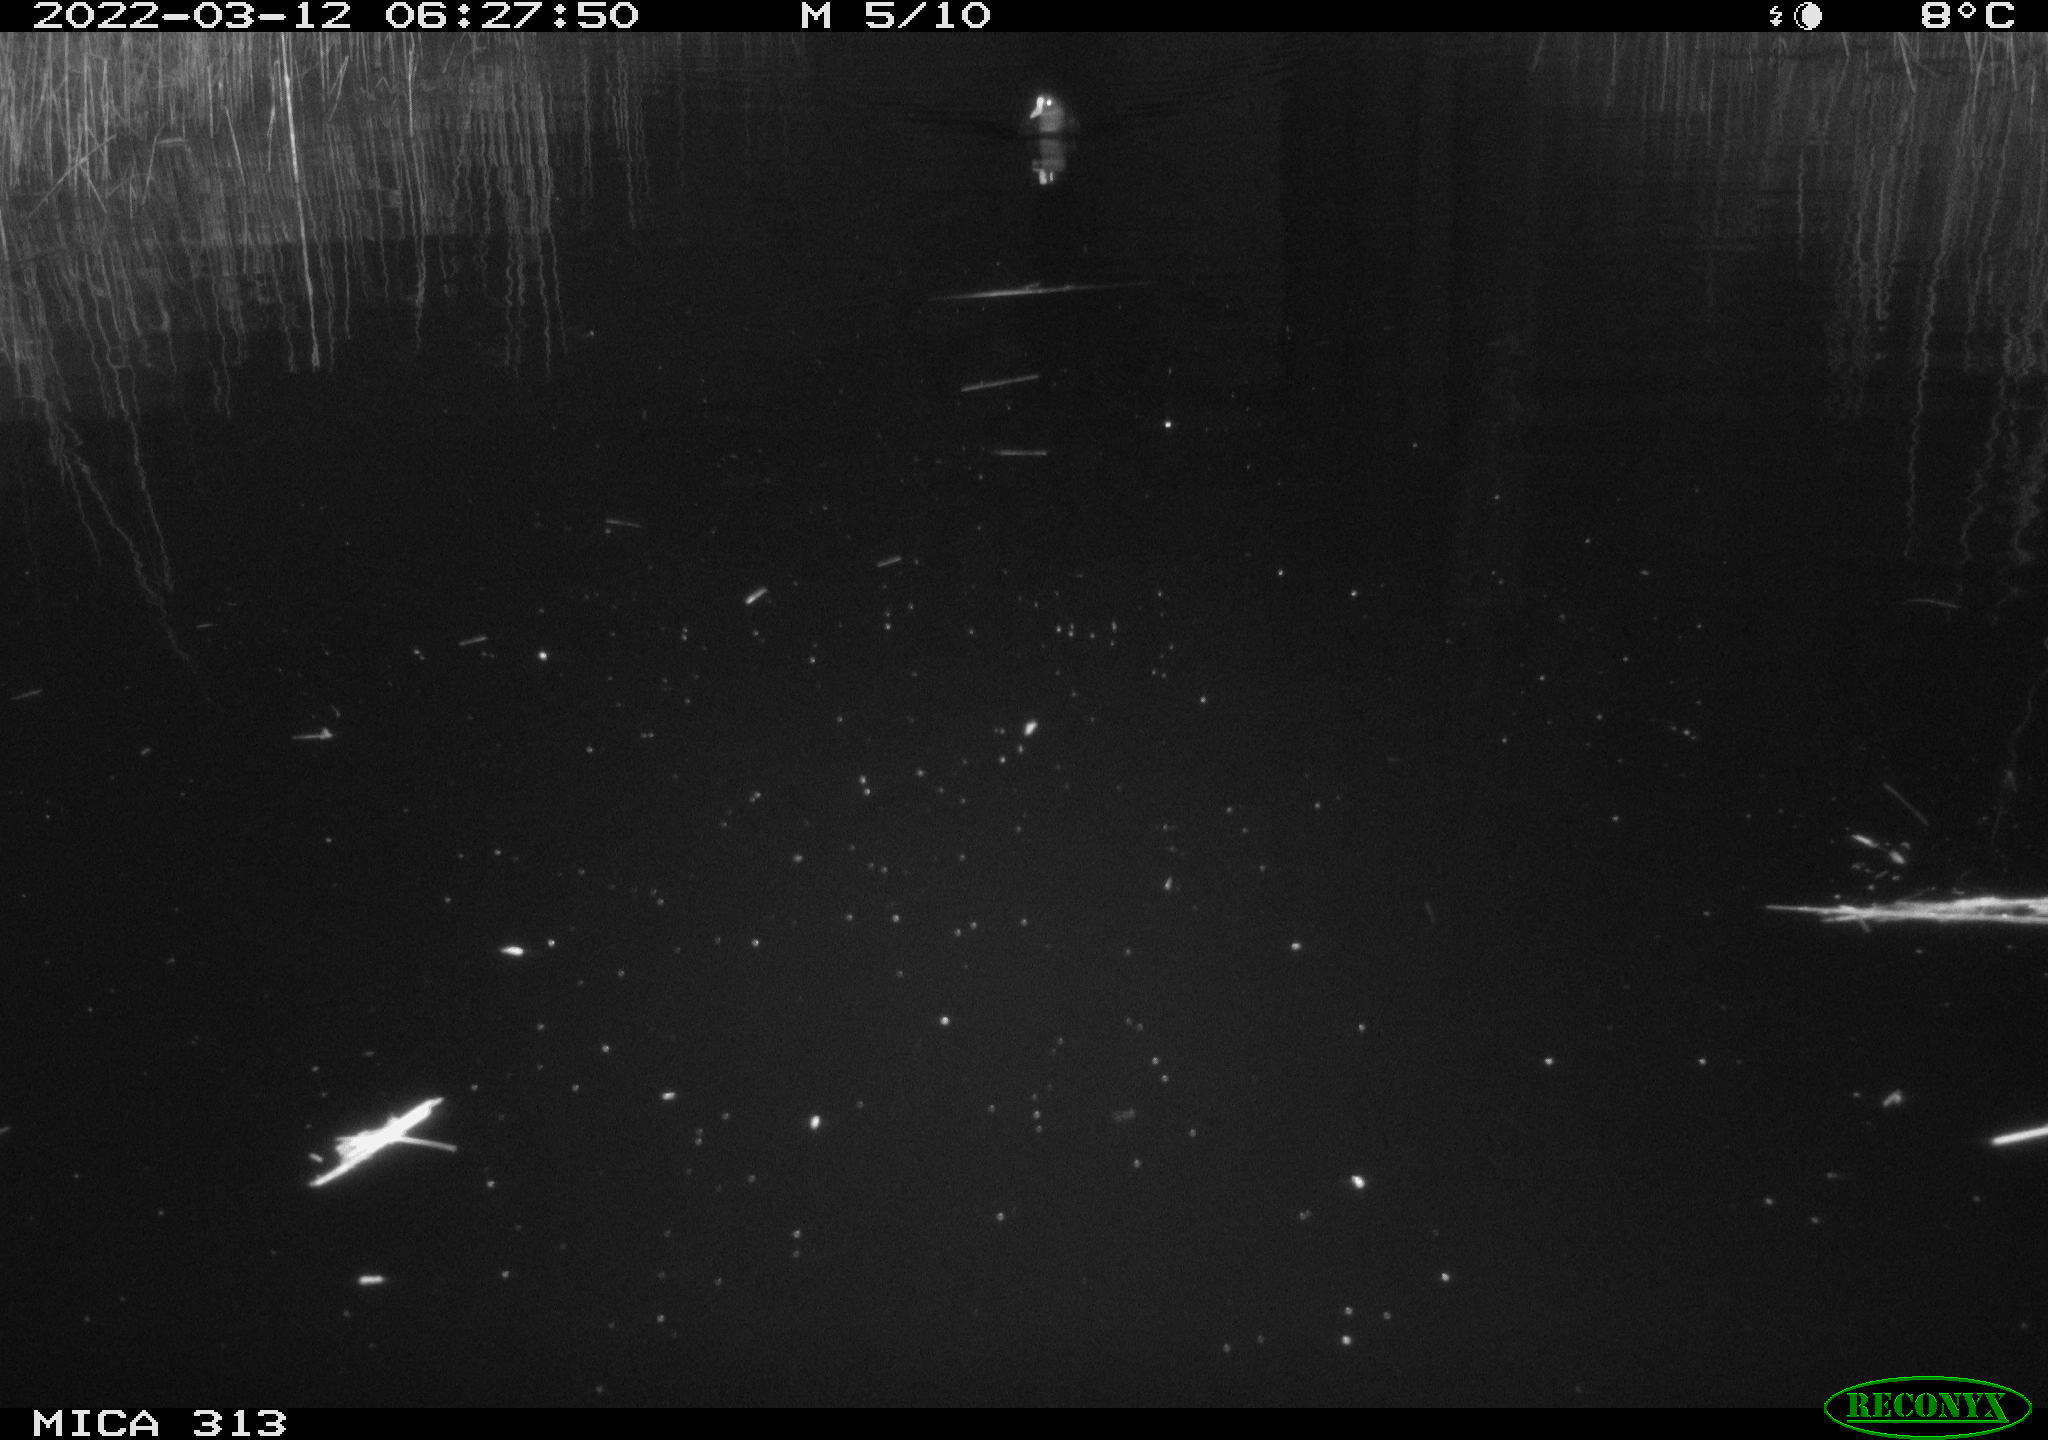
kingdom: Animalia
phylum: Chordata
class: Aves
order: Gruiformes
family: Rallidae
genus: Fulica
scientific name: Fulica atra
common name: Eurasian coot
